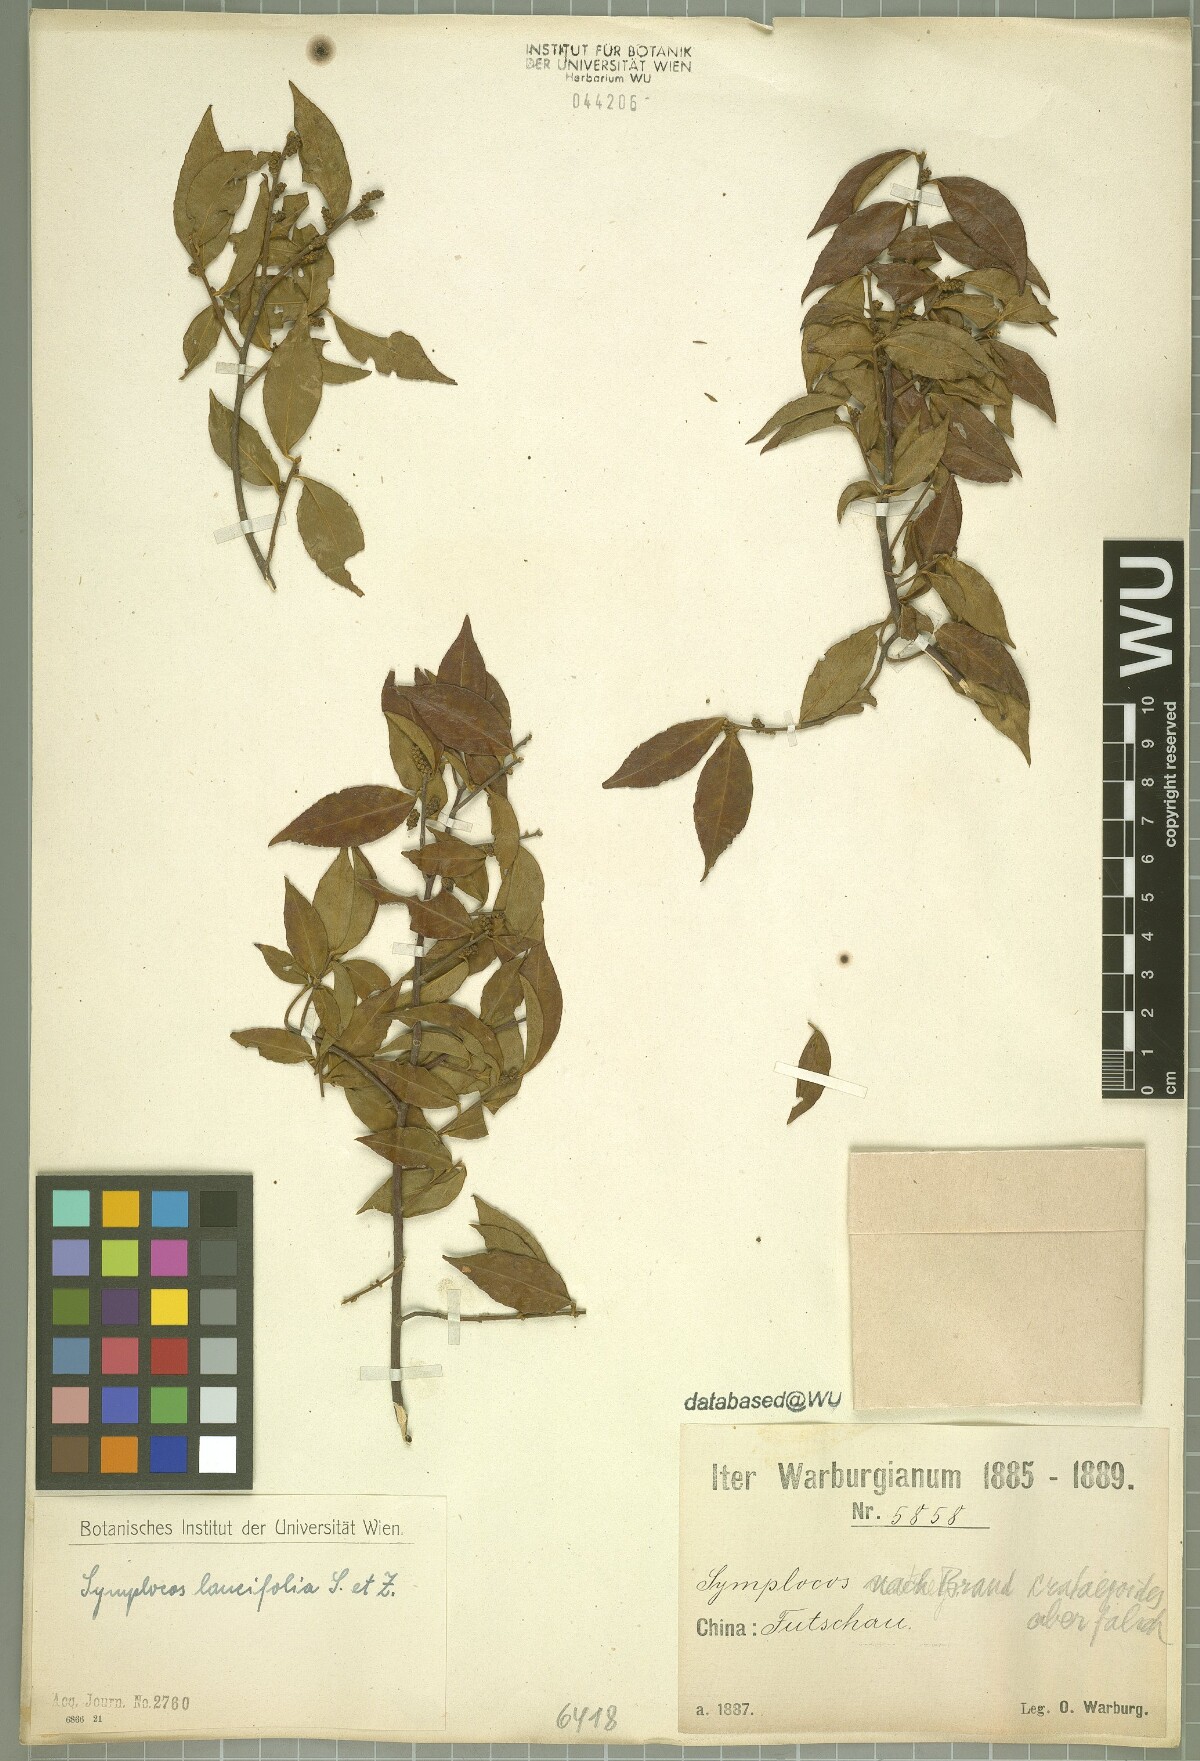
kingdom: Plantae
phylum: Tracheophyta
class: Magnoliopsida
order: Ericales
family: Symplocaceae
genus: Symplocos
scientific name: Symplocos lancifolia
